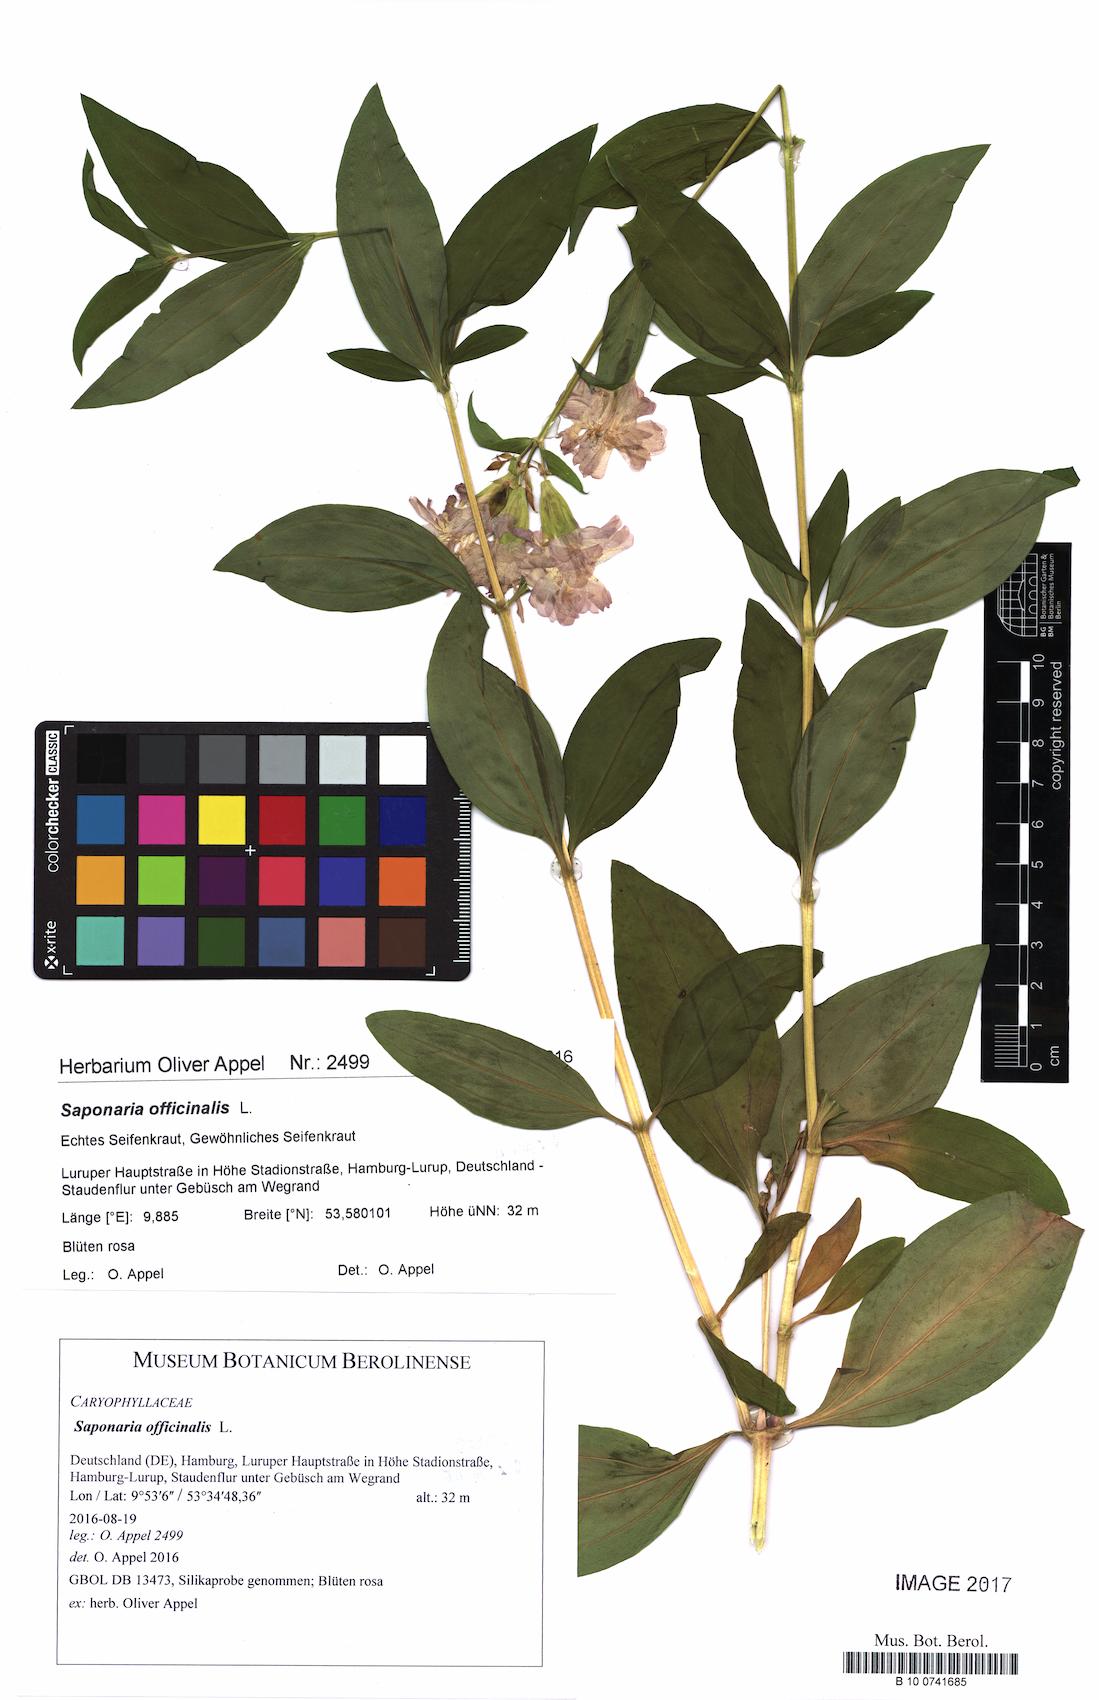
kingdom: Plantae
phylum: Tracheophyta
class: Magnoliopsida
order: Caryophyllales
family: Caryophyllaceae
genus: Saponaria
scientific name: Saponaria officinalis
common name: Soapwort
